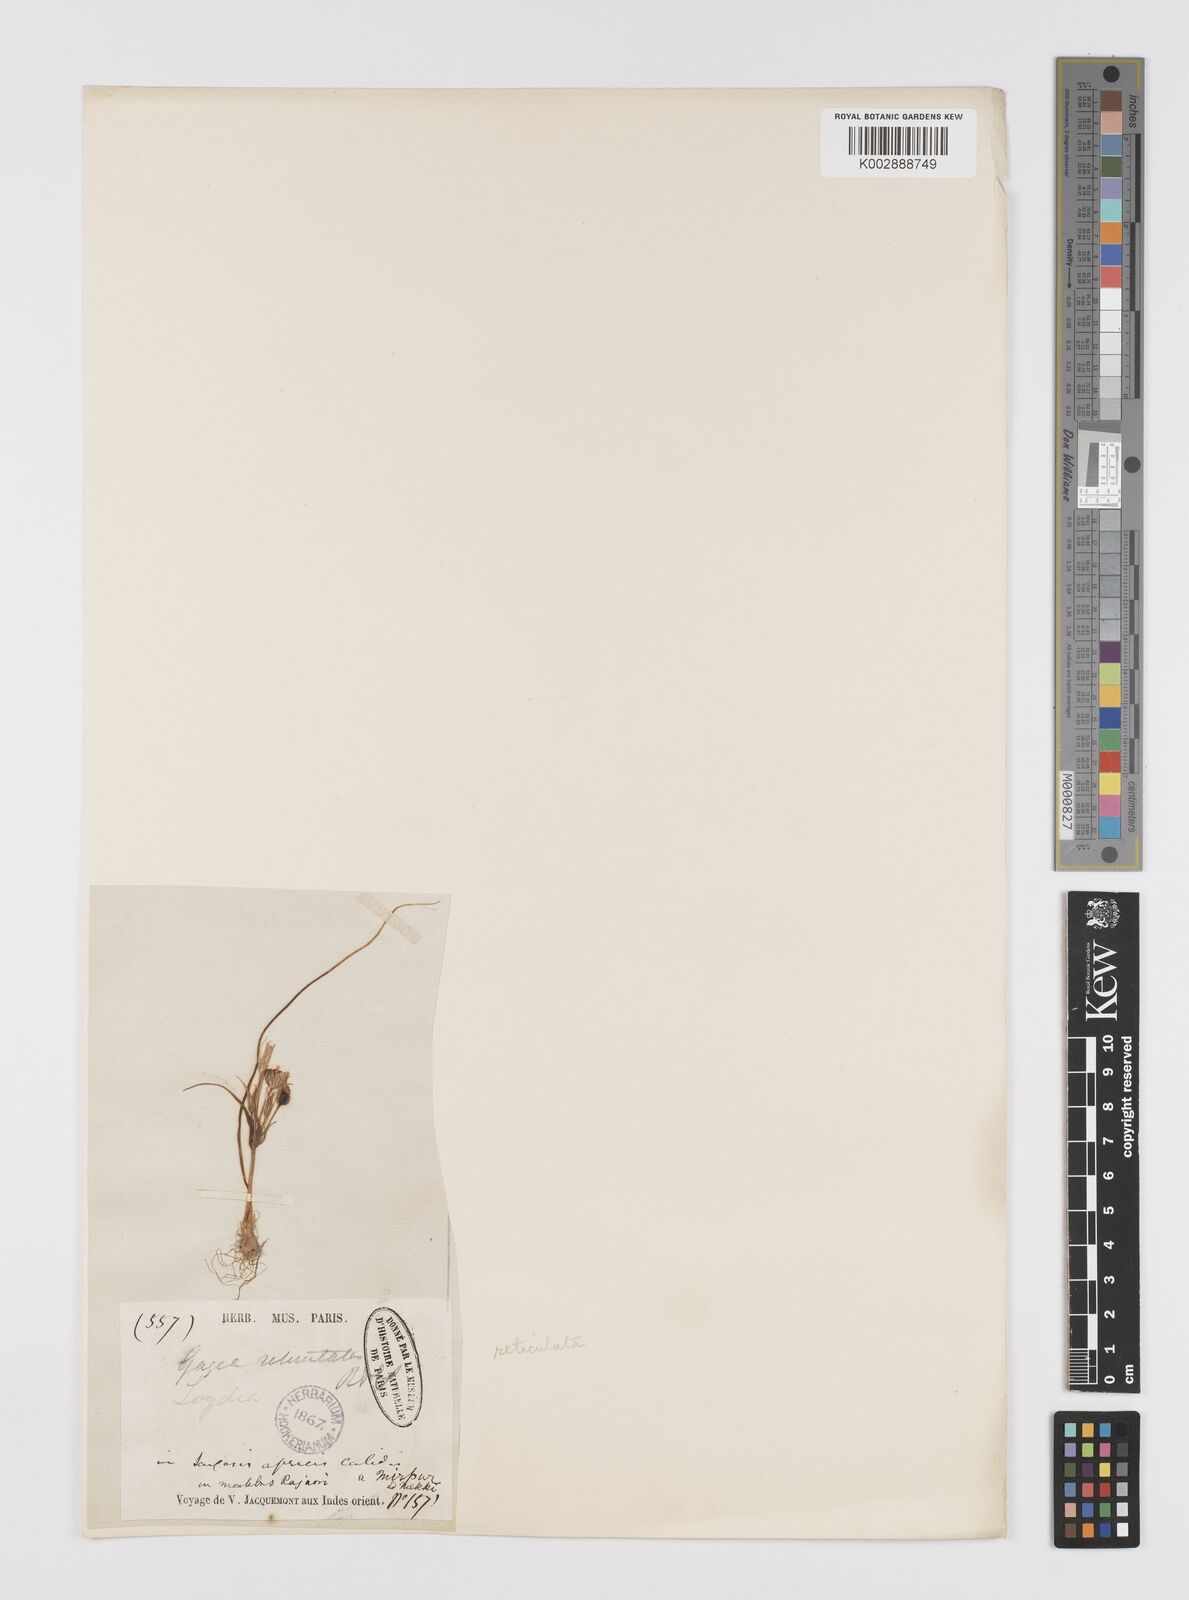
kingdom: Plantae
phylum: Tracheophyta
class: Liliopsida
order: Liliales
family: Liliaceae
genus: Gagea
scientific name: Gagea
